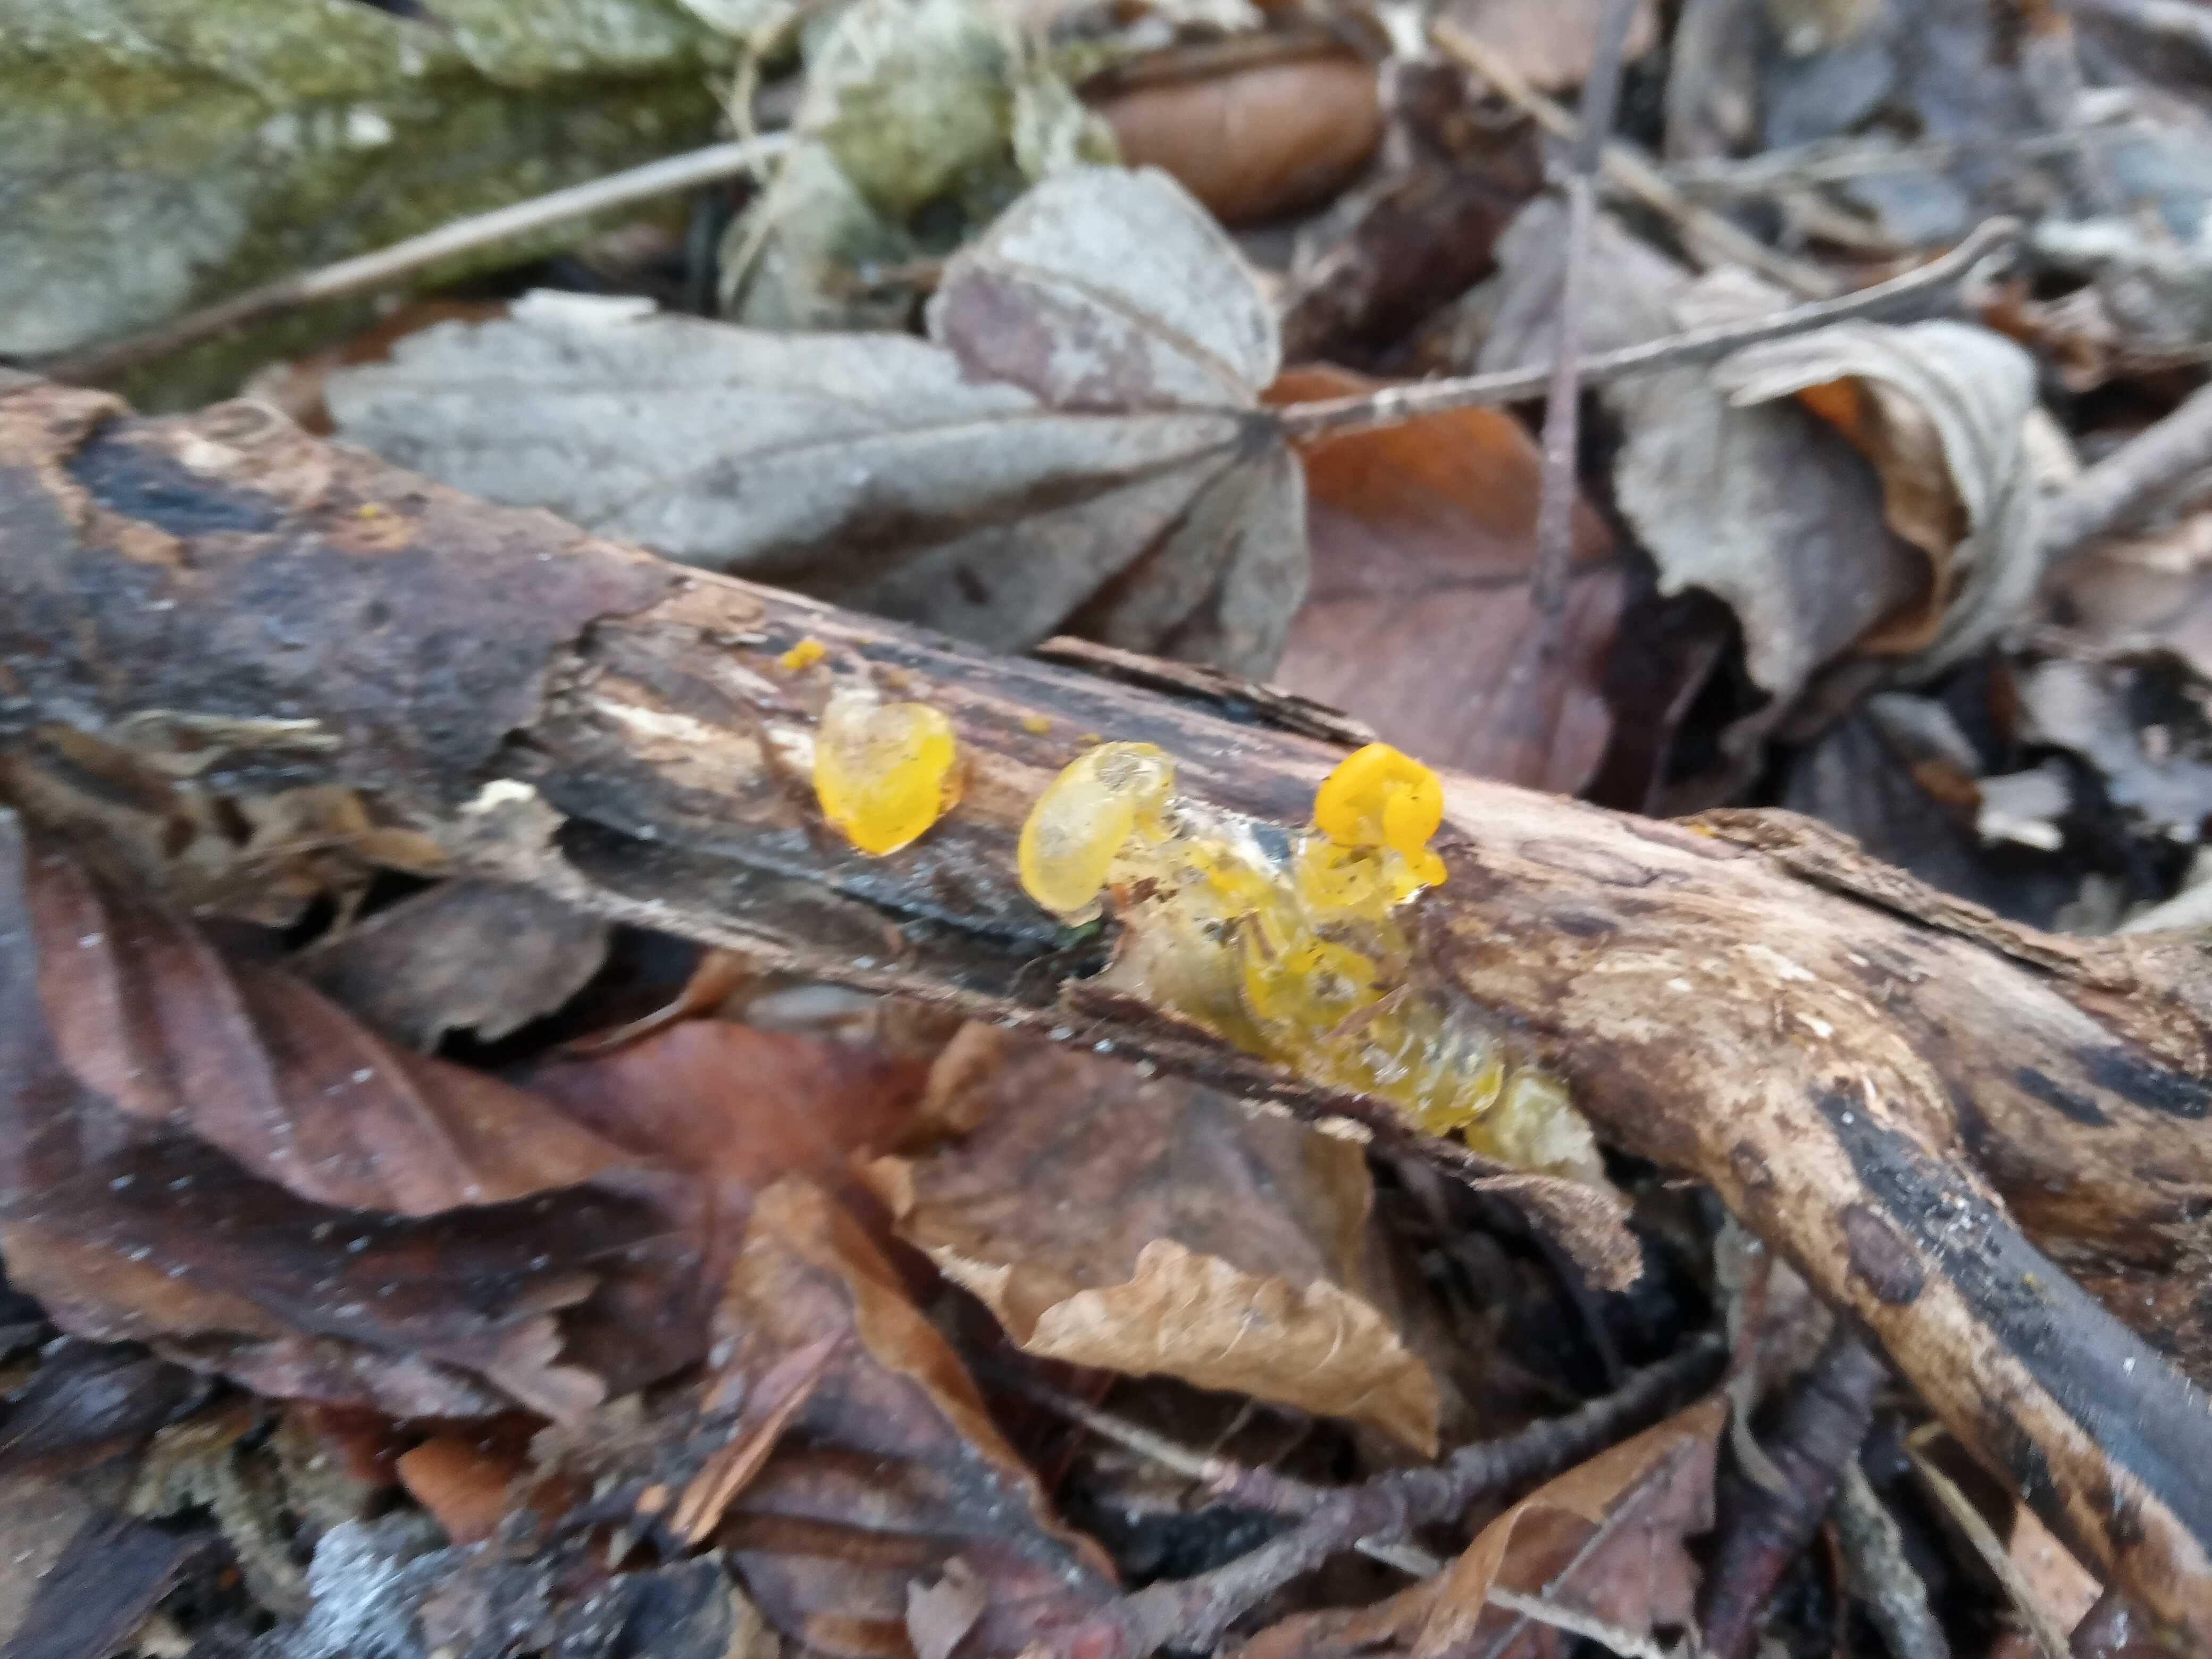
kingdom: Fungi
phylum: Basidiomycota
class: Tremellomycetes
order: Tremellales
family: Tremellaceae
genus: Tremella
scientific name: Tremella mesenterica
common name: gul bævresvamp
